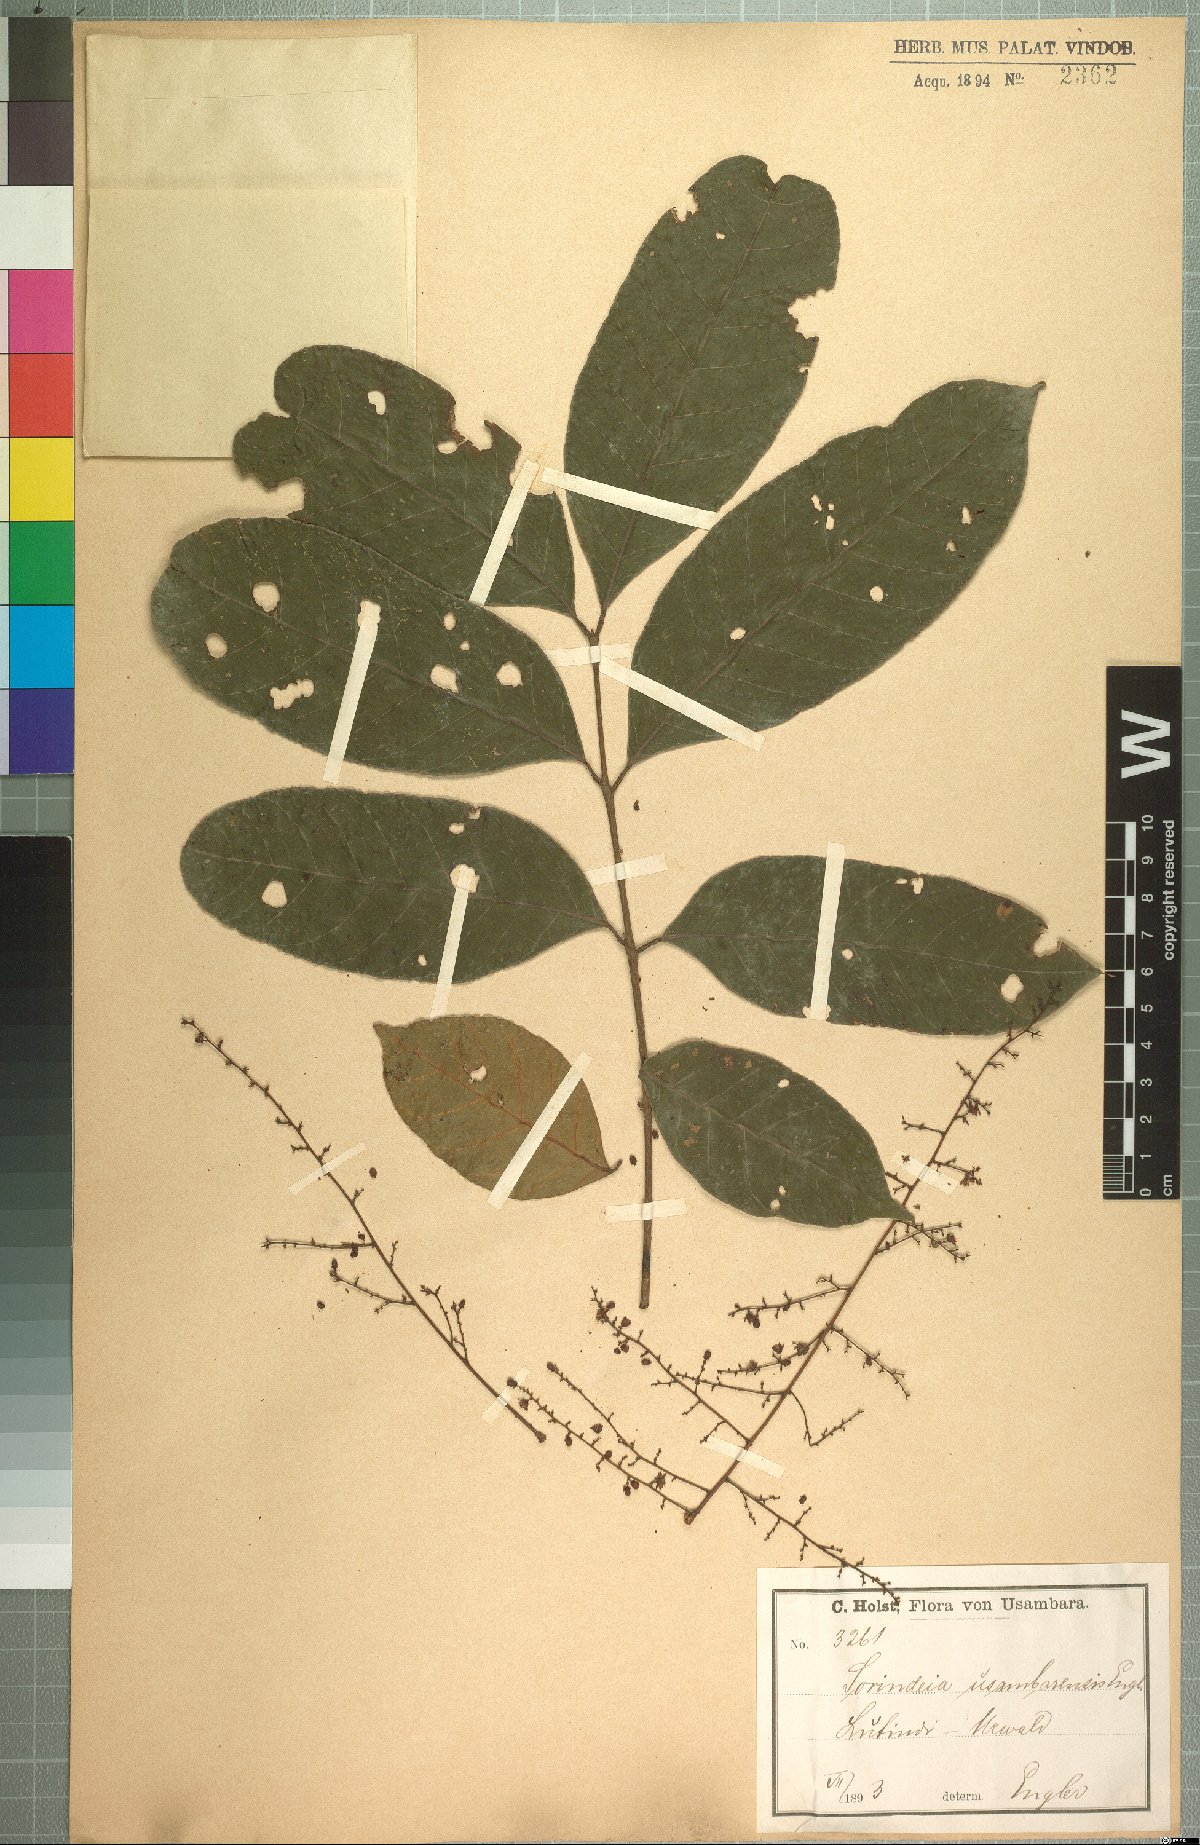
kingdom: Plantae
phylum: Tracheophyta
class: Magnoliopsida
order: Sapindales
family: Anacardiaceae
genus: Sorindeia
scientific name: Sorindeia madagascariensis
